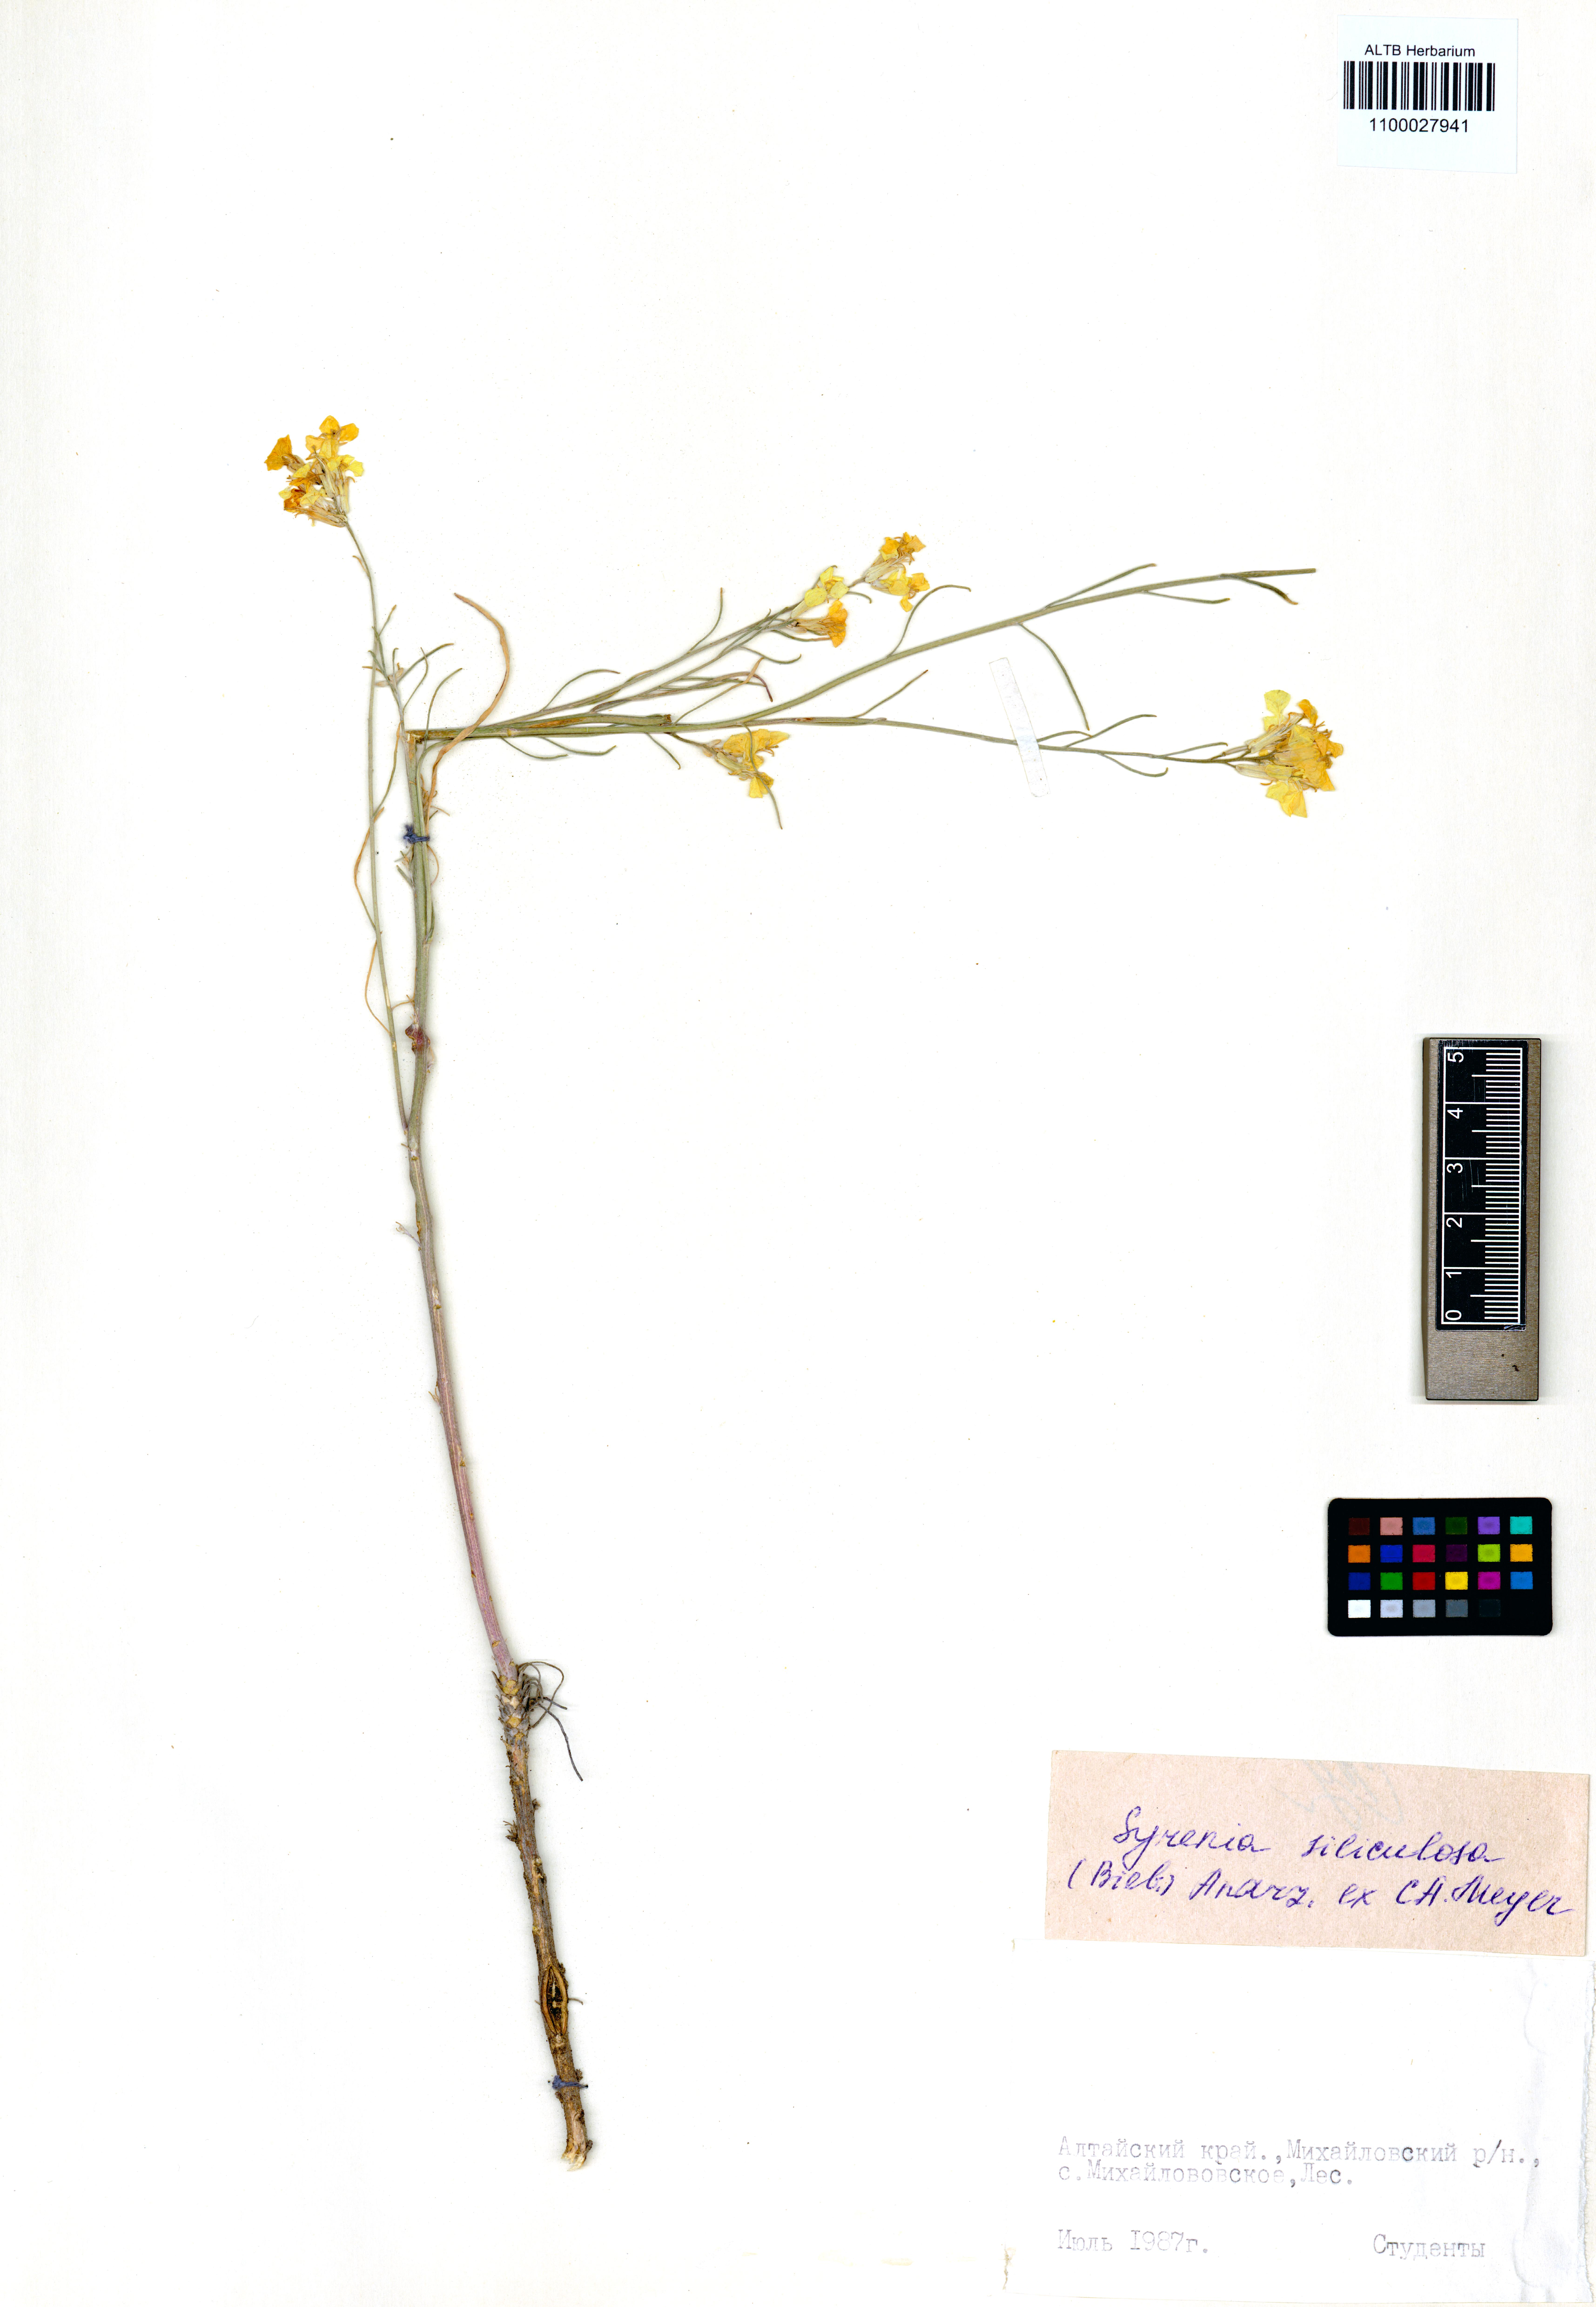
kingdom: Plantae
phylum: Tracheophyta
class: Magnoliopsida
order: Brassicales
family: Brassicaceae
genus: Syrenia
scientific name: Syrenia siliculosa
